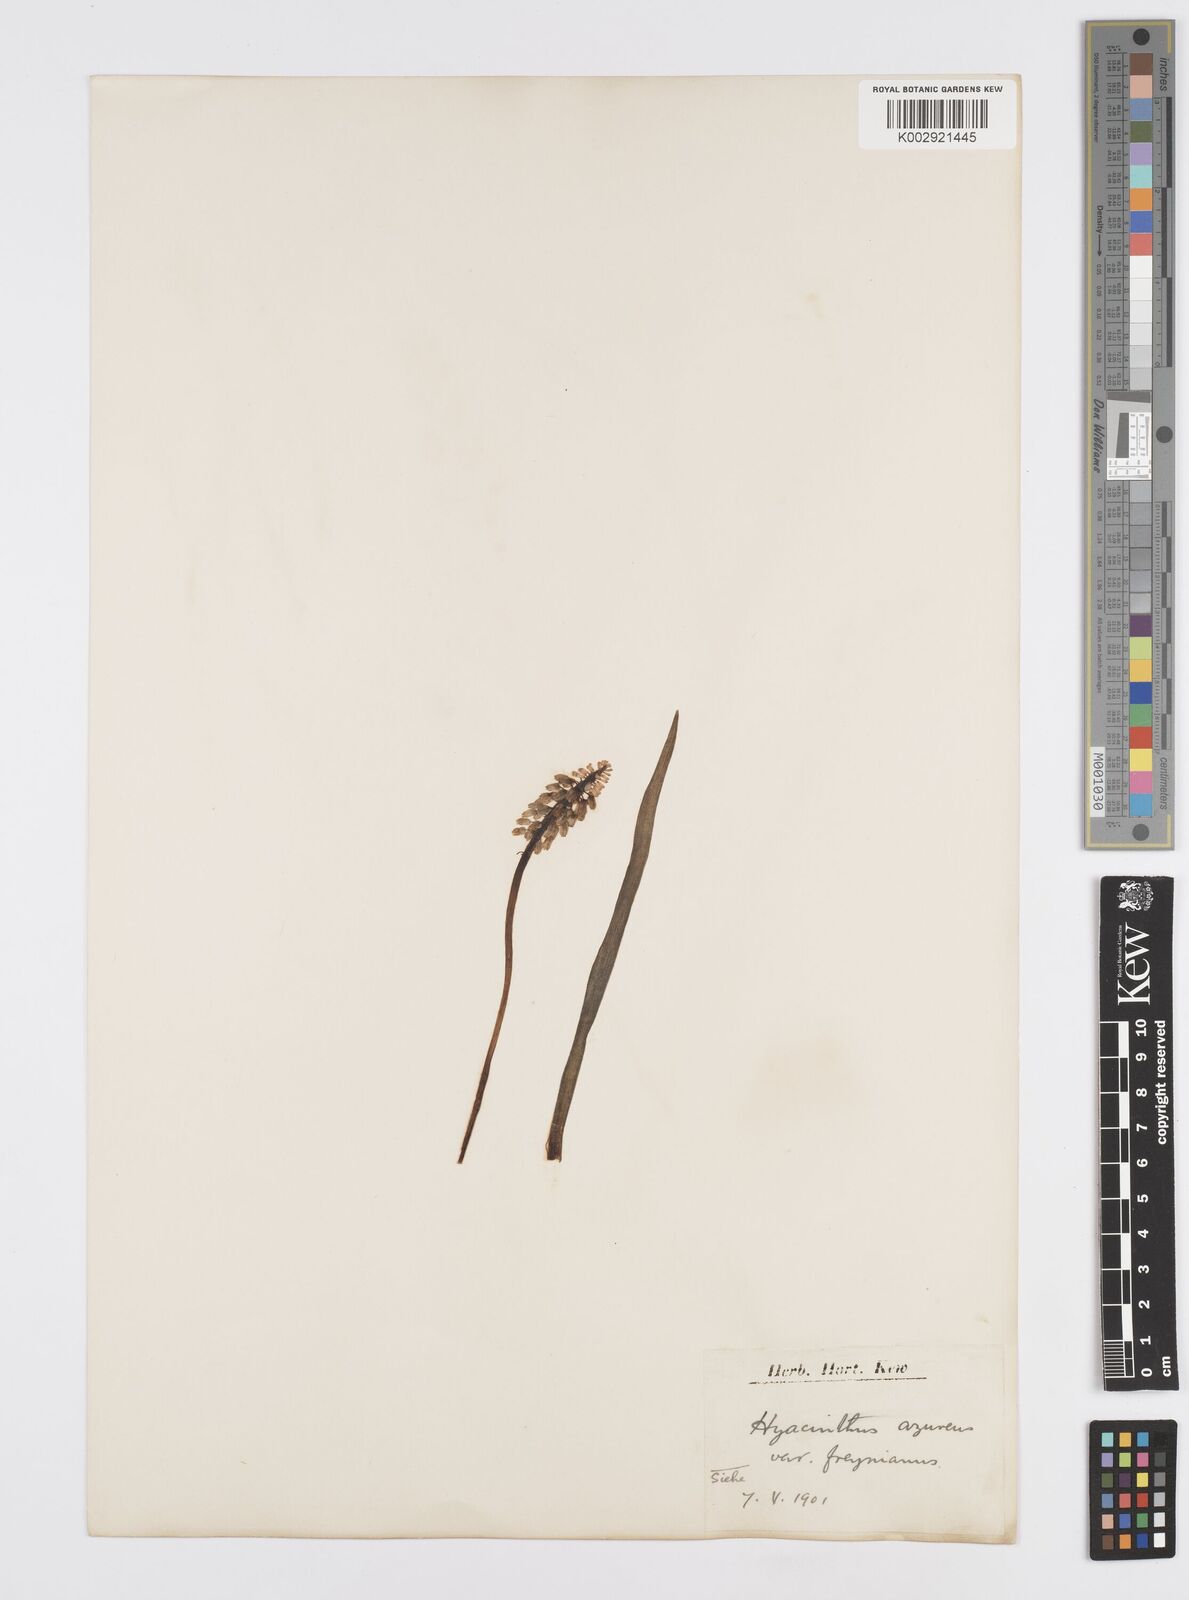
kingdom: Plantae
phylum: Tracheophyta
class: Liliopsida
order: Asparagales
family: Asparagaceae
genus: Muscari
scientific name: Muscari azureum
